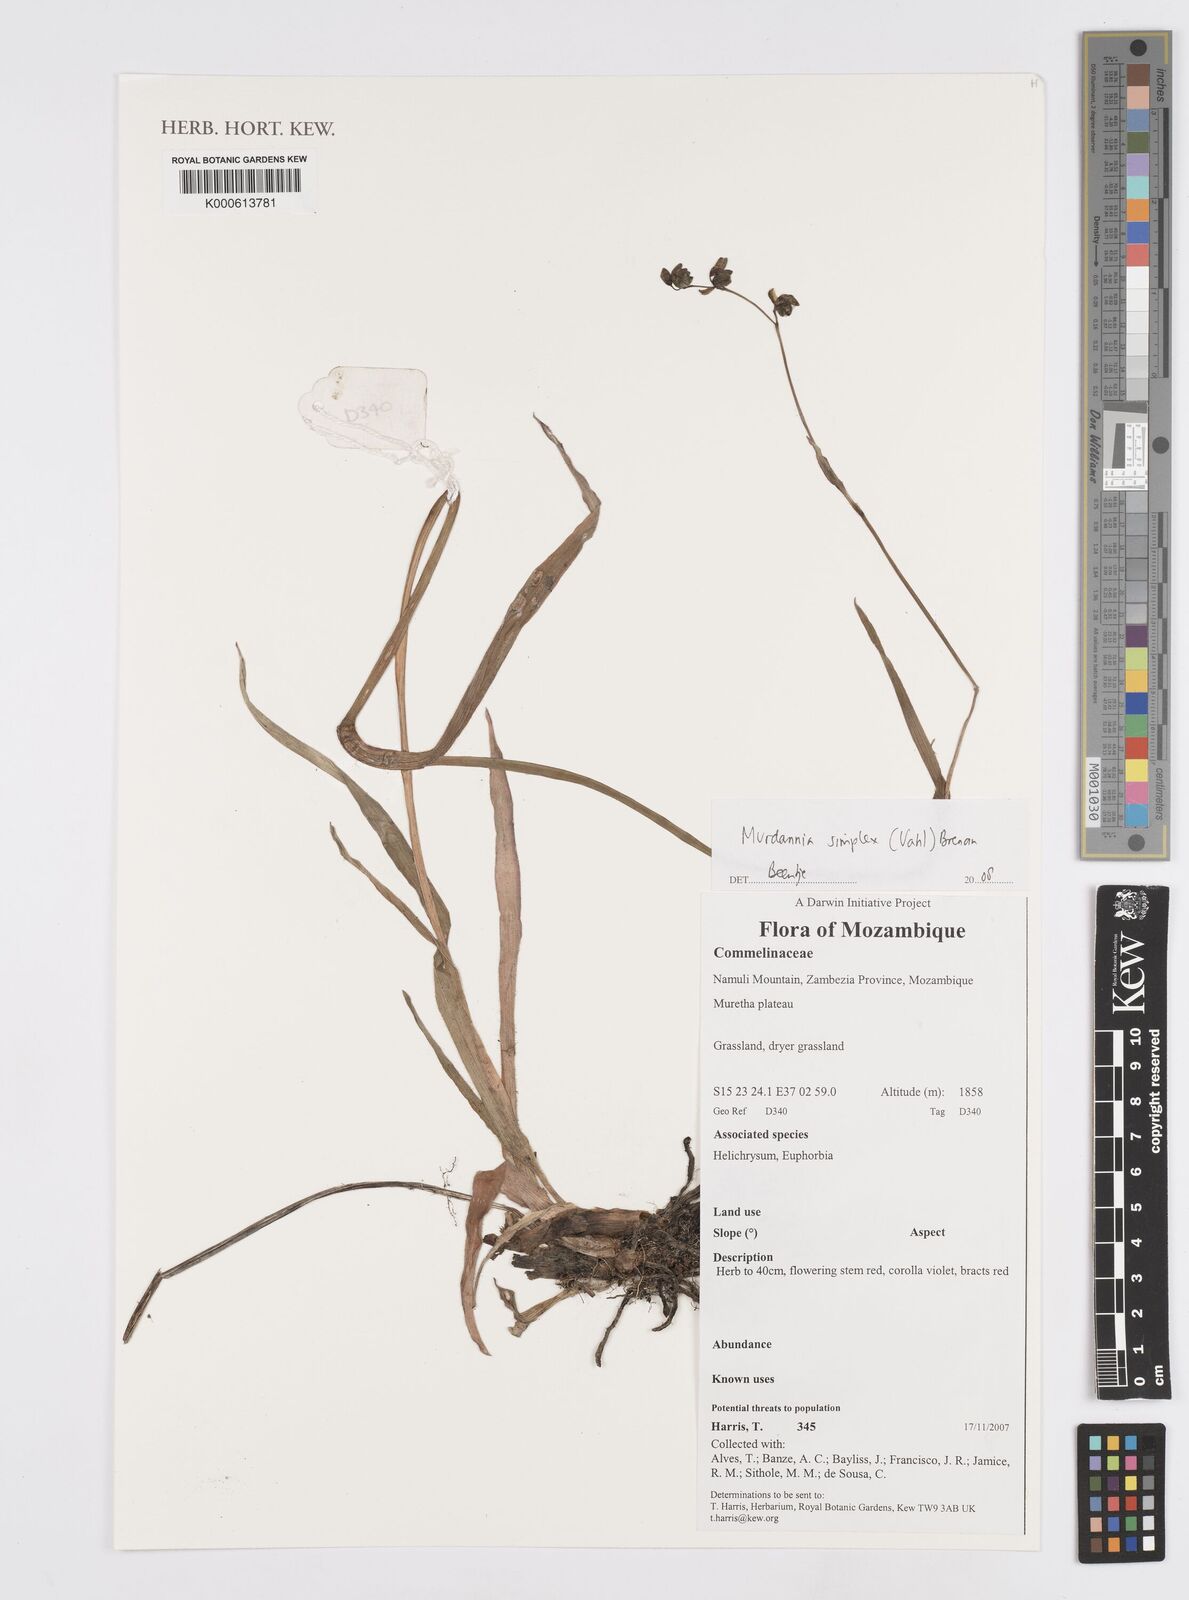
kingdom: Plantae
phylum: Tracheophyta
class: Liliopsida
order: Commelinales
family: Commelinaceae
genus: Murdannia
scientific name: Murdannia simplex
